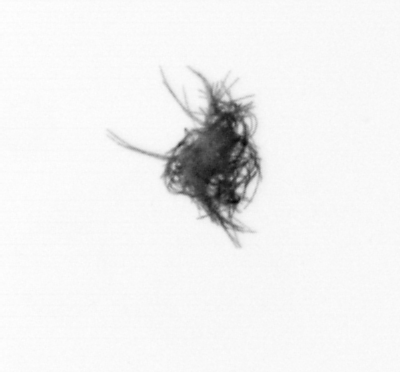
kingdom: Bacteria
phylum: Cyanobacteria
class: Cyanobacteriia
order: Cyanobacteriales
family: Microcoleaceae
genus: Trichodesmium
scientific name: Trichodesmium
